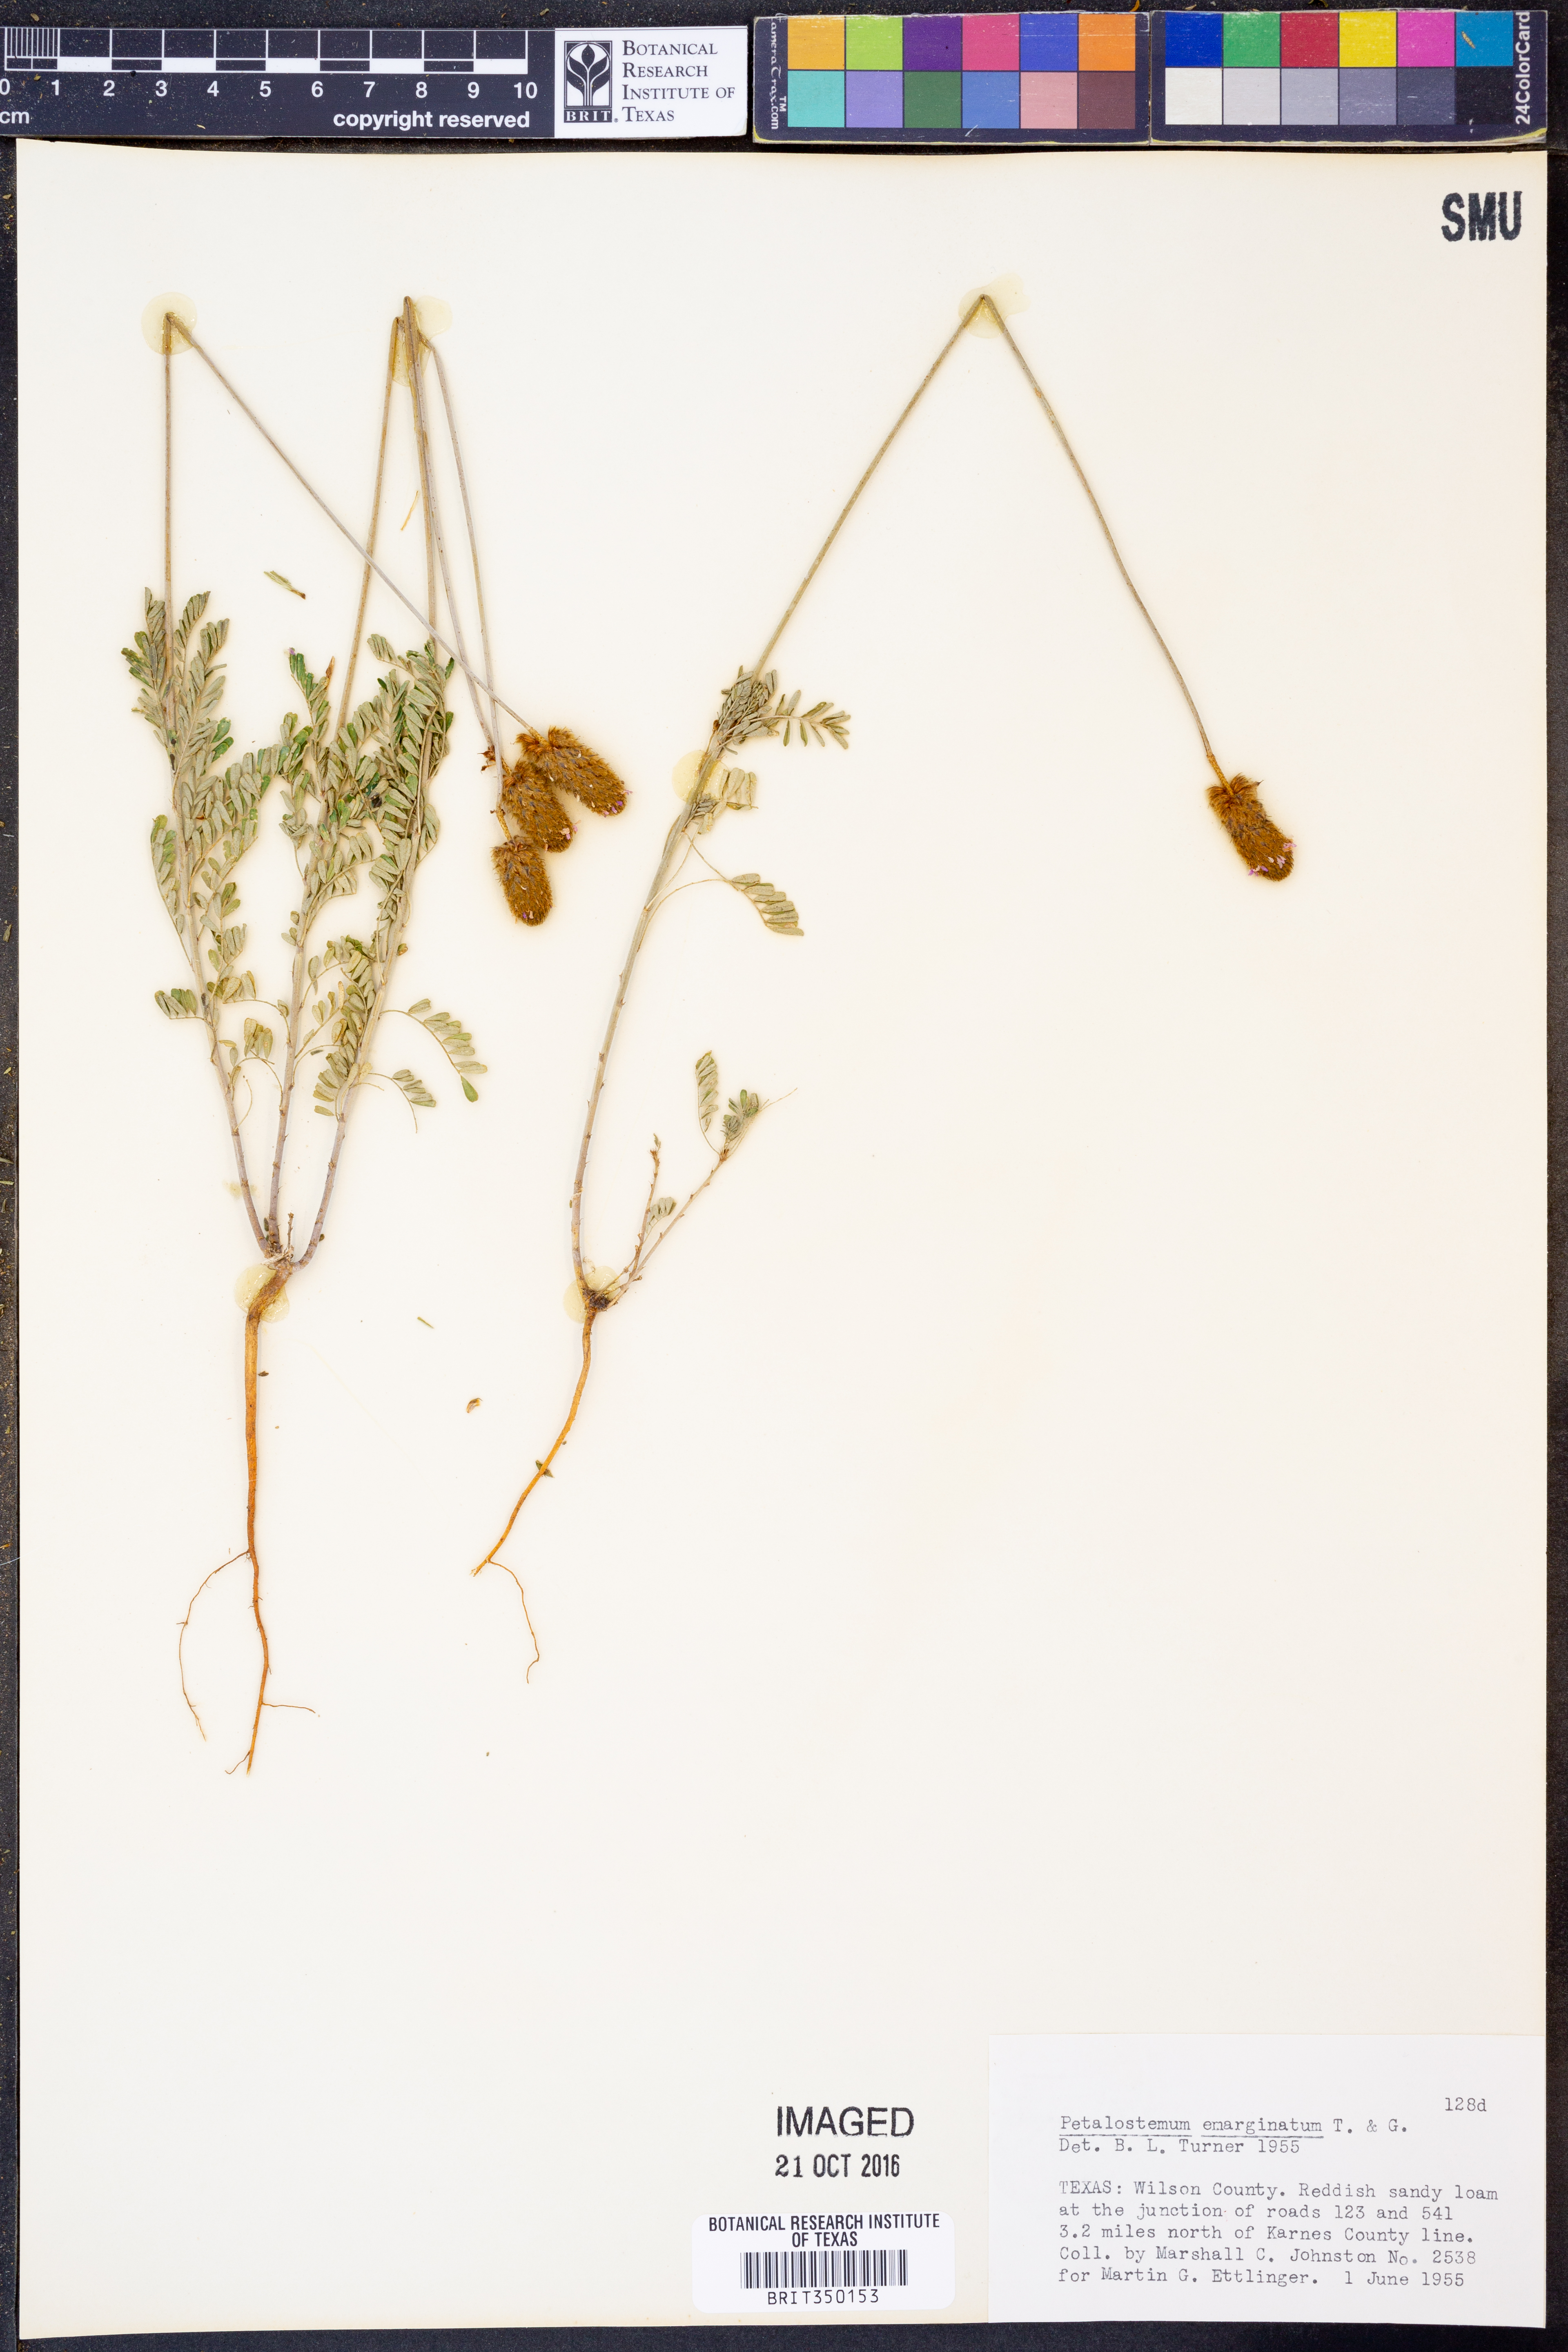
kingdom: Plantae
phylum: Tracheophyta
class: Magnoliopsida
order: Fabales
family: Fabaceae
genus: Dalea
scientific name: Dalea emarginata
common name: Wedgeleaf prairie clover
